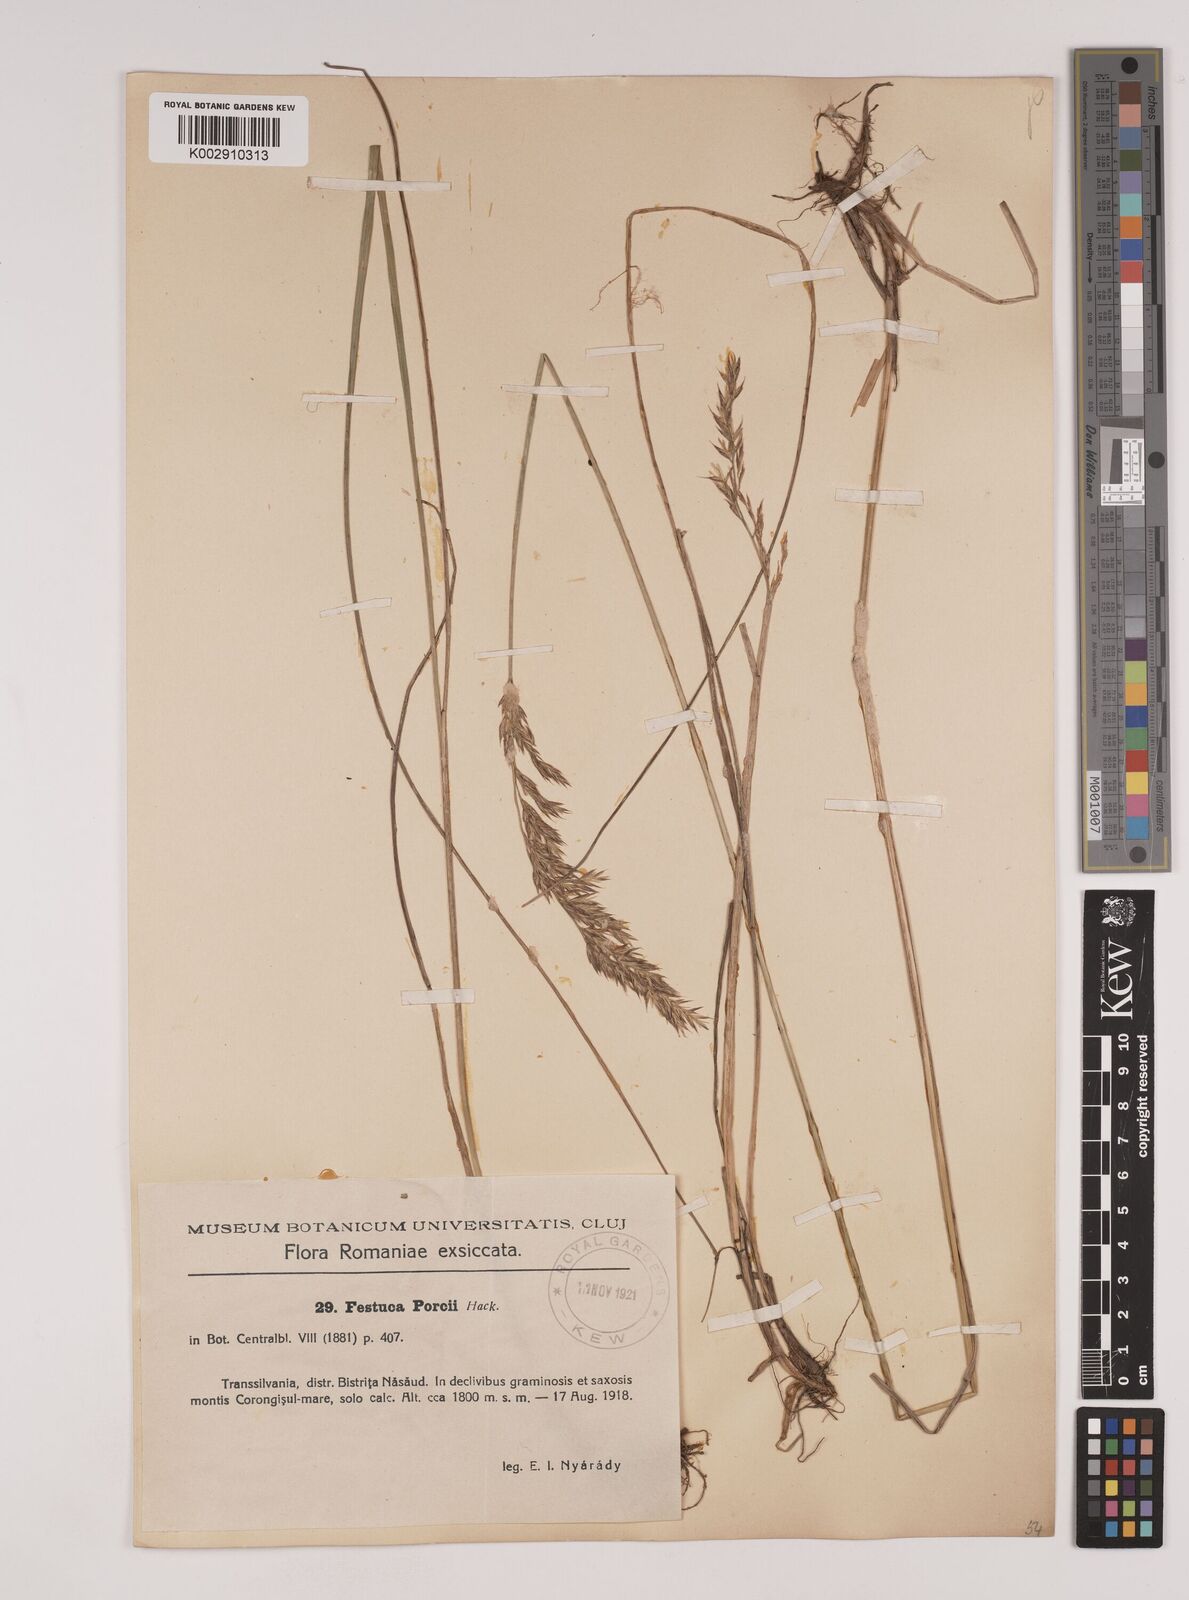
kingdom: Plantae
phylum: Tracheophyta
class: Liliopsida
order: Poales
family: Poaceae
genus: Festuca
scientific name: Festuca porcii
